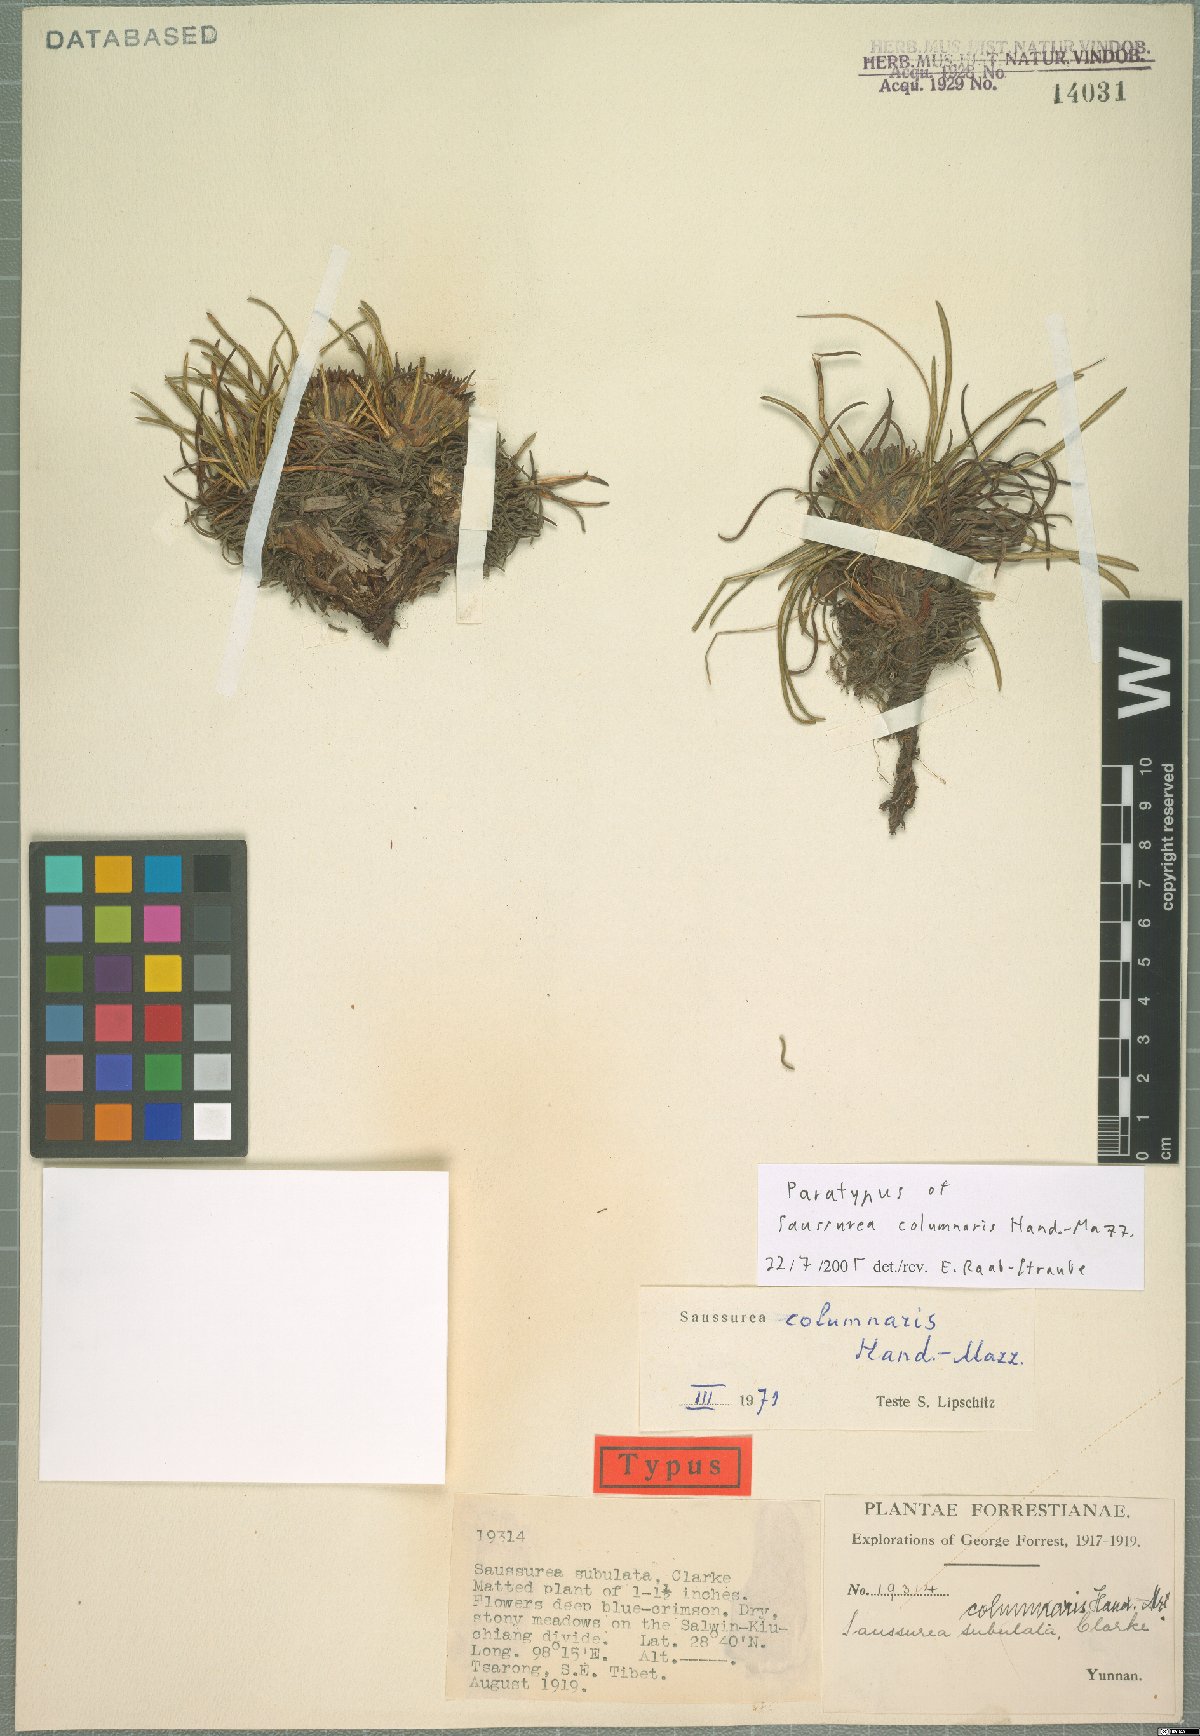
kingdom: Plantae
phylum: Tracheophyta
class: Magnoliopsida
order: Asterales
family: Asteraceae
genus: Saussurea
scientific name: Saussurea columnaris
